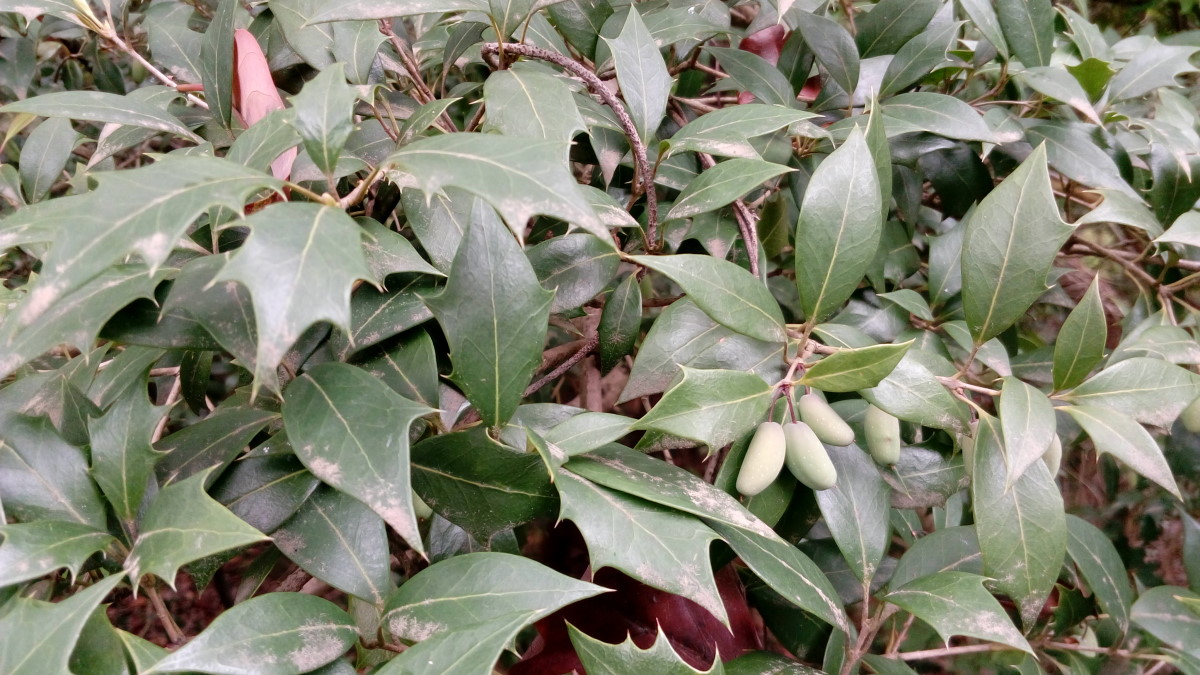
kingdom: Plantae
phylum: Tracheophyta
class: Magnoliopsida
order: Lamiales
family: Oleaceae
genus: Osmanthus
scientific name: Osmanthus fortunei
